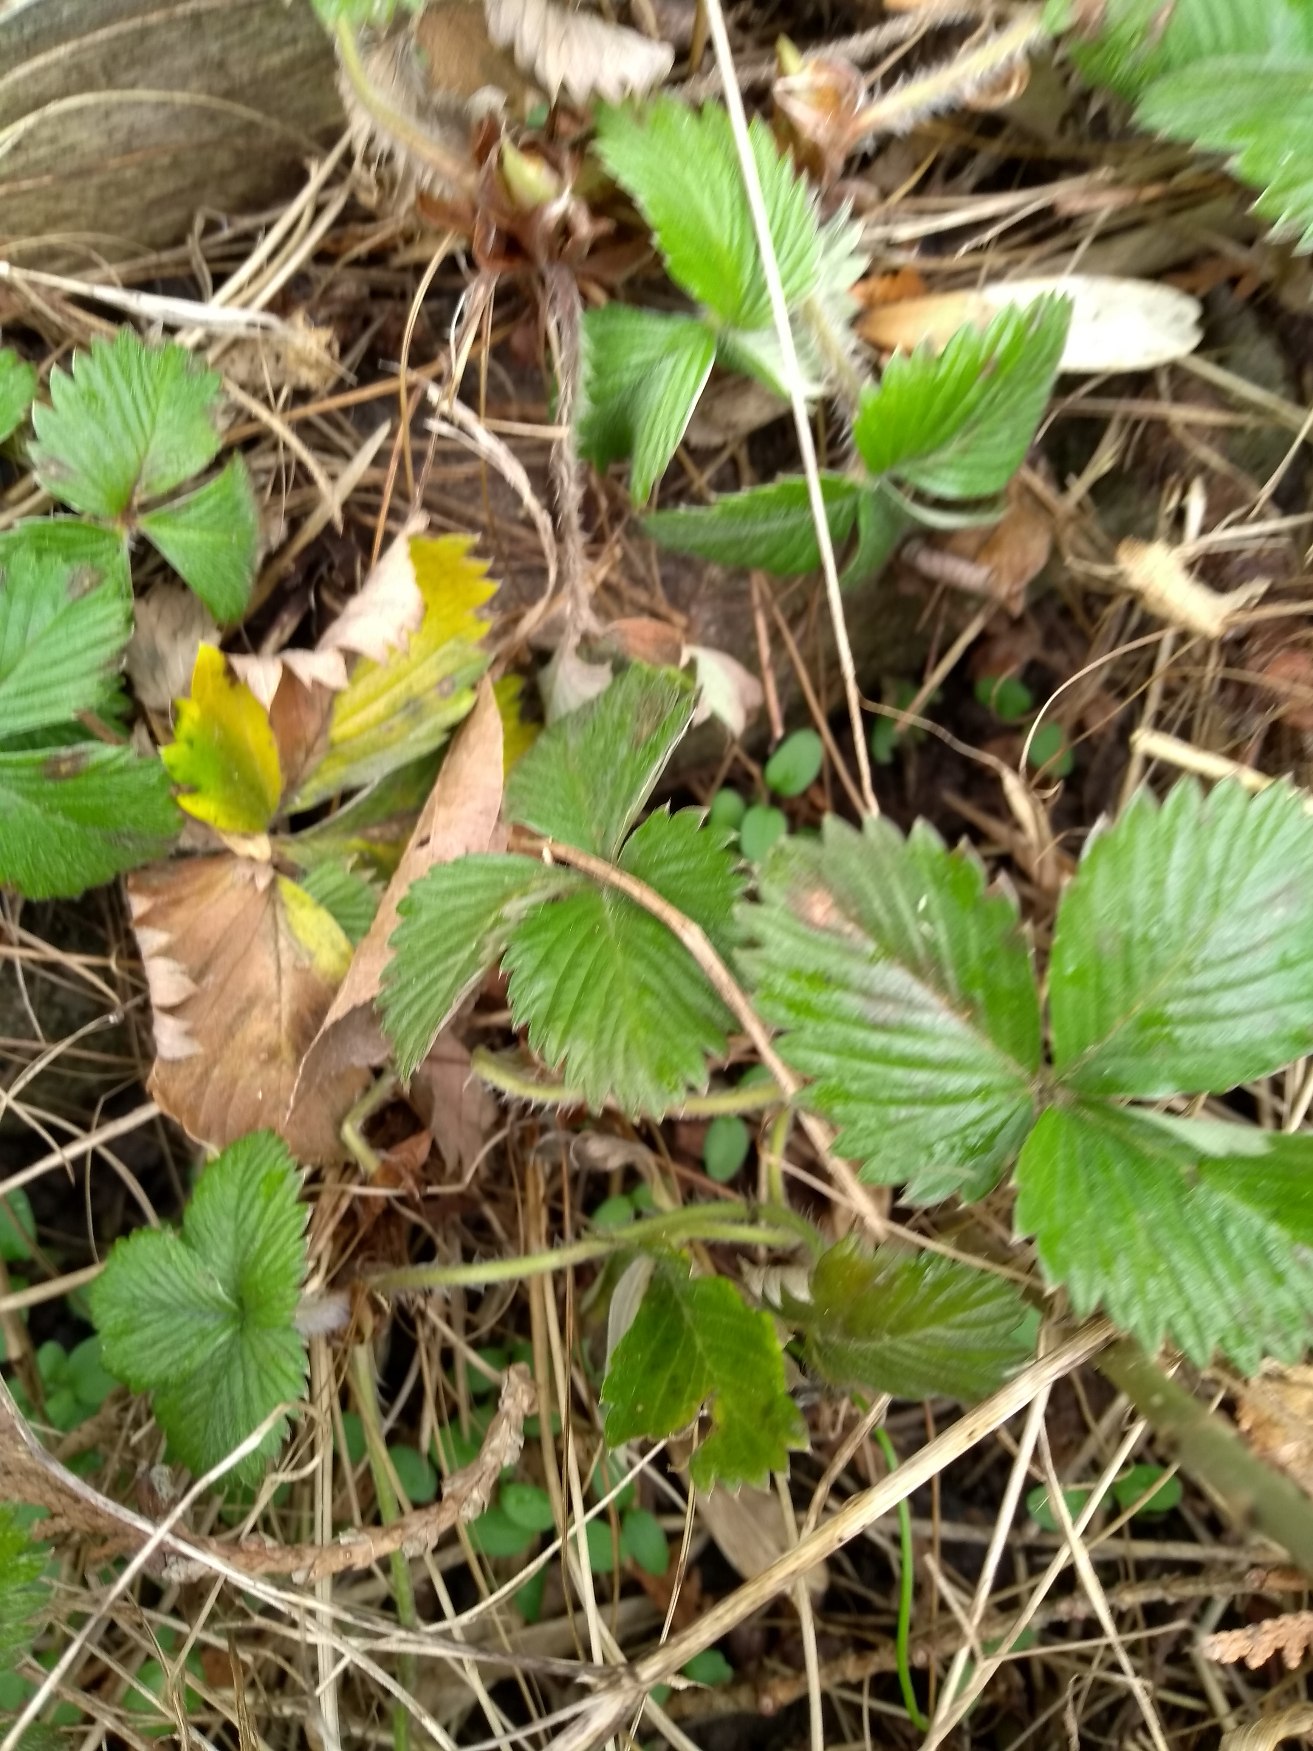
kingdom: Plantae
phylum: Tracheophyta
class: Magnoliopsida
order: Rosales
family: Rosaceae
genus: Fragaria
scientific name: Fragaria vesca
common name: Skov-jordbær
